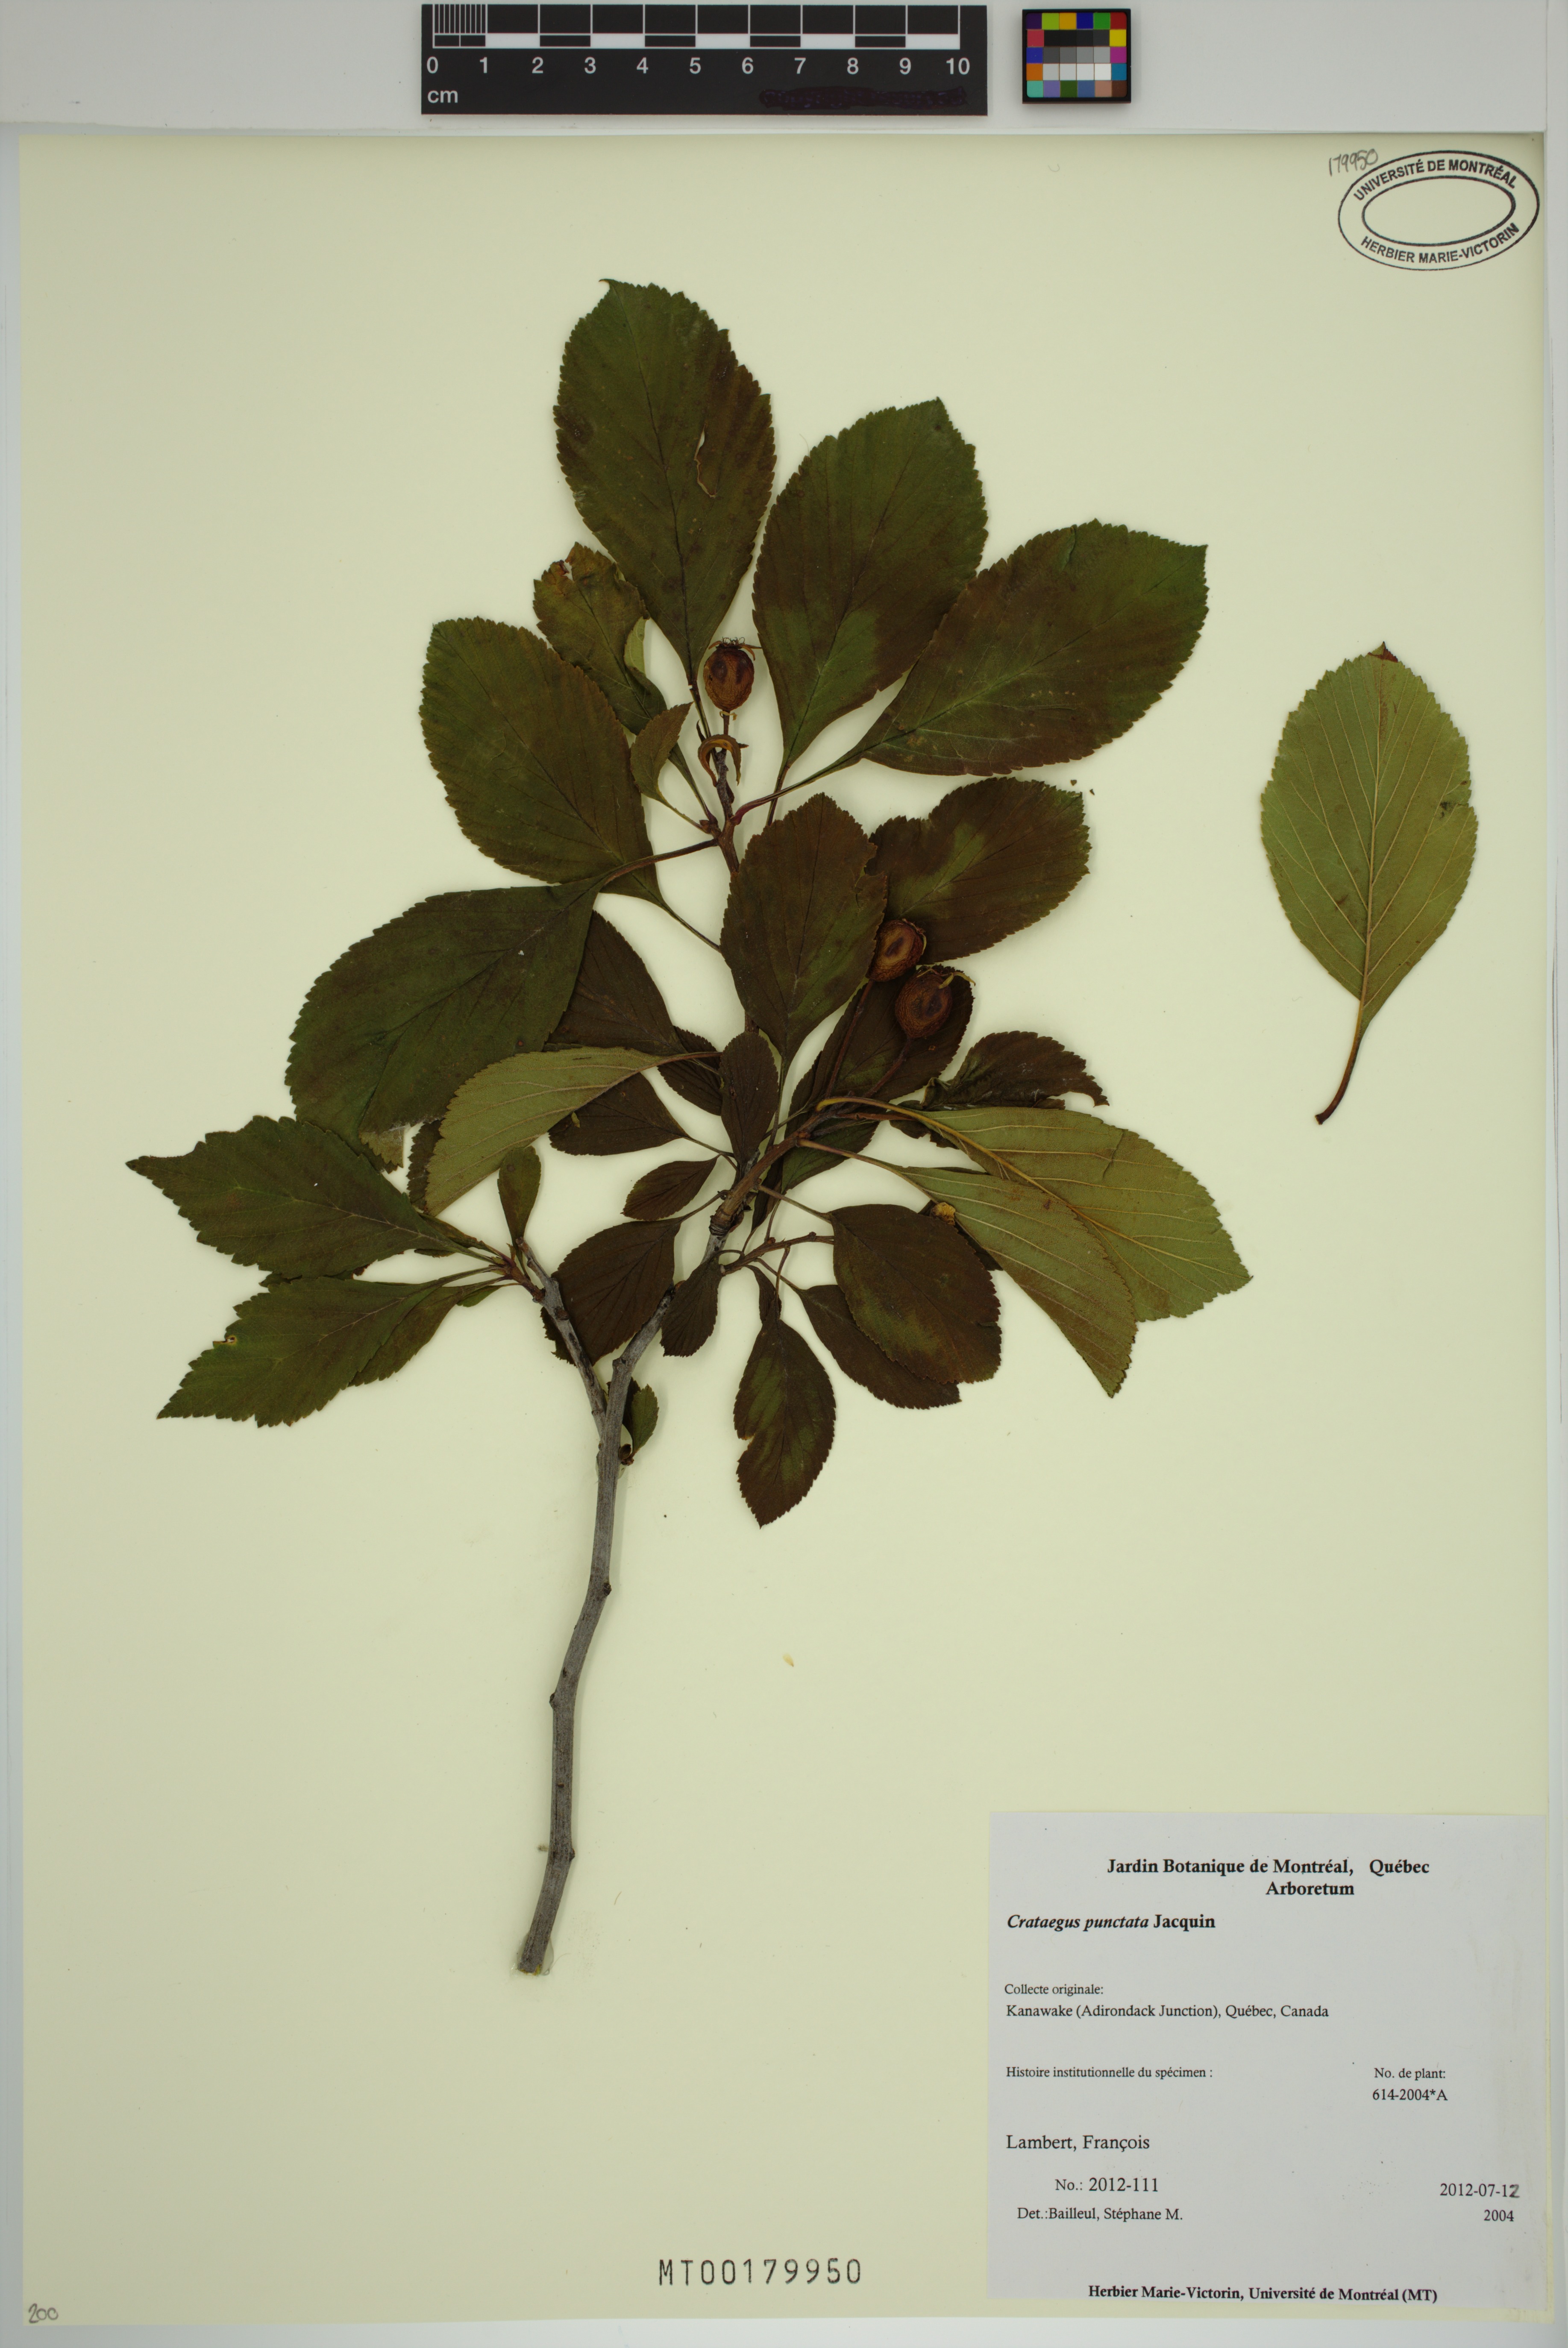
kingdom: Plantae
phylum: Tracheophyta
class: Magnoliopsida
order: Rosales
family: Rosaceae
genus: Crataegus
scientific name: Crataegus punctata
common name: Dotted hawthorn
